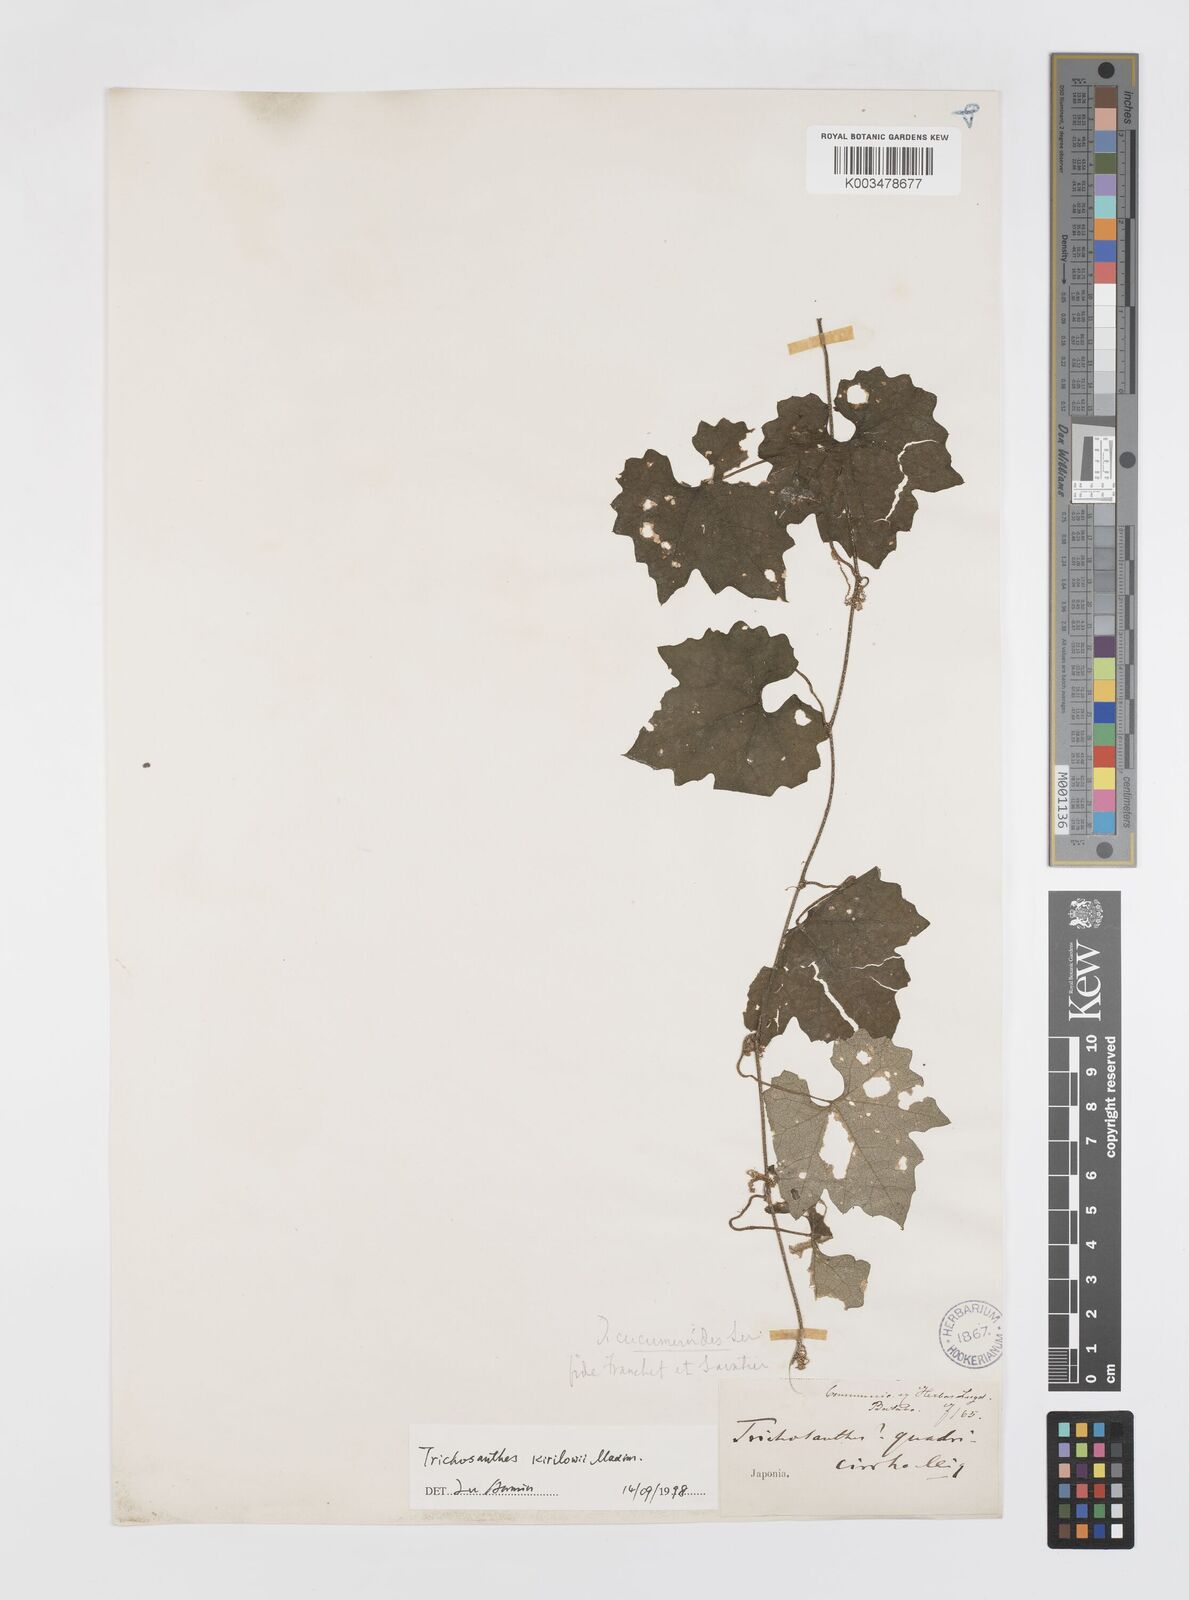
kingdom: Plantae
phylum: Tracheophyta
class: Magnoliopsida
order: Cucurbitales
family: Cucurbitaceae
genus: Trichosanthes
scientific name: Trichosanthes kirilowii
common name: Chinese-cucumber
